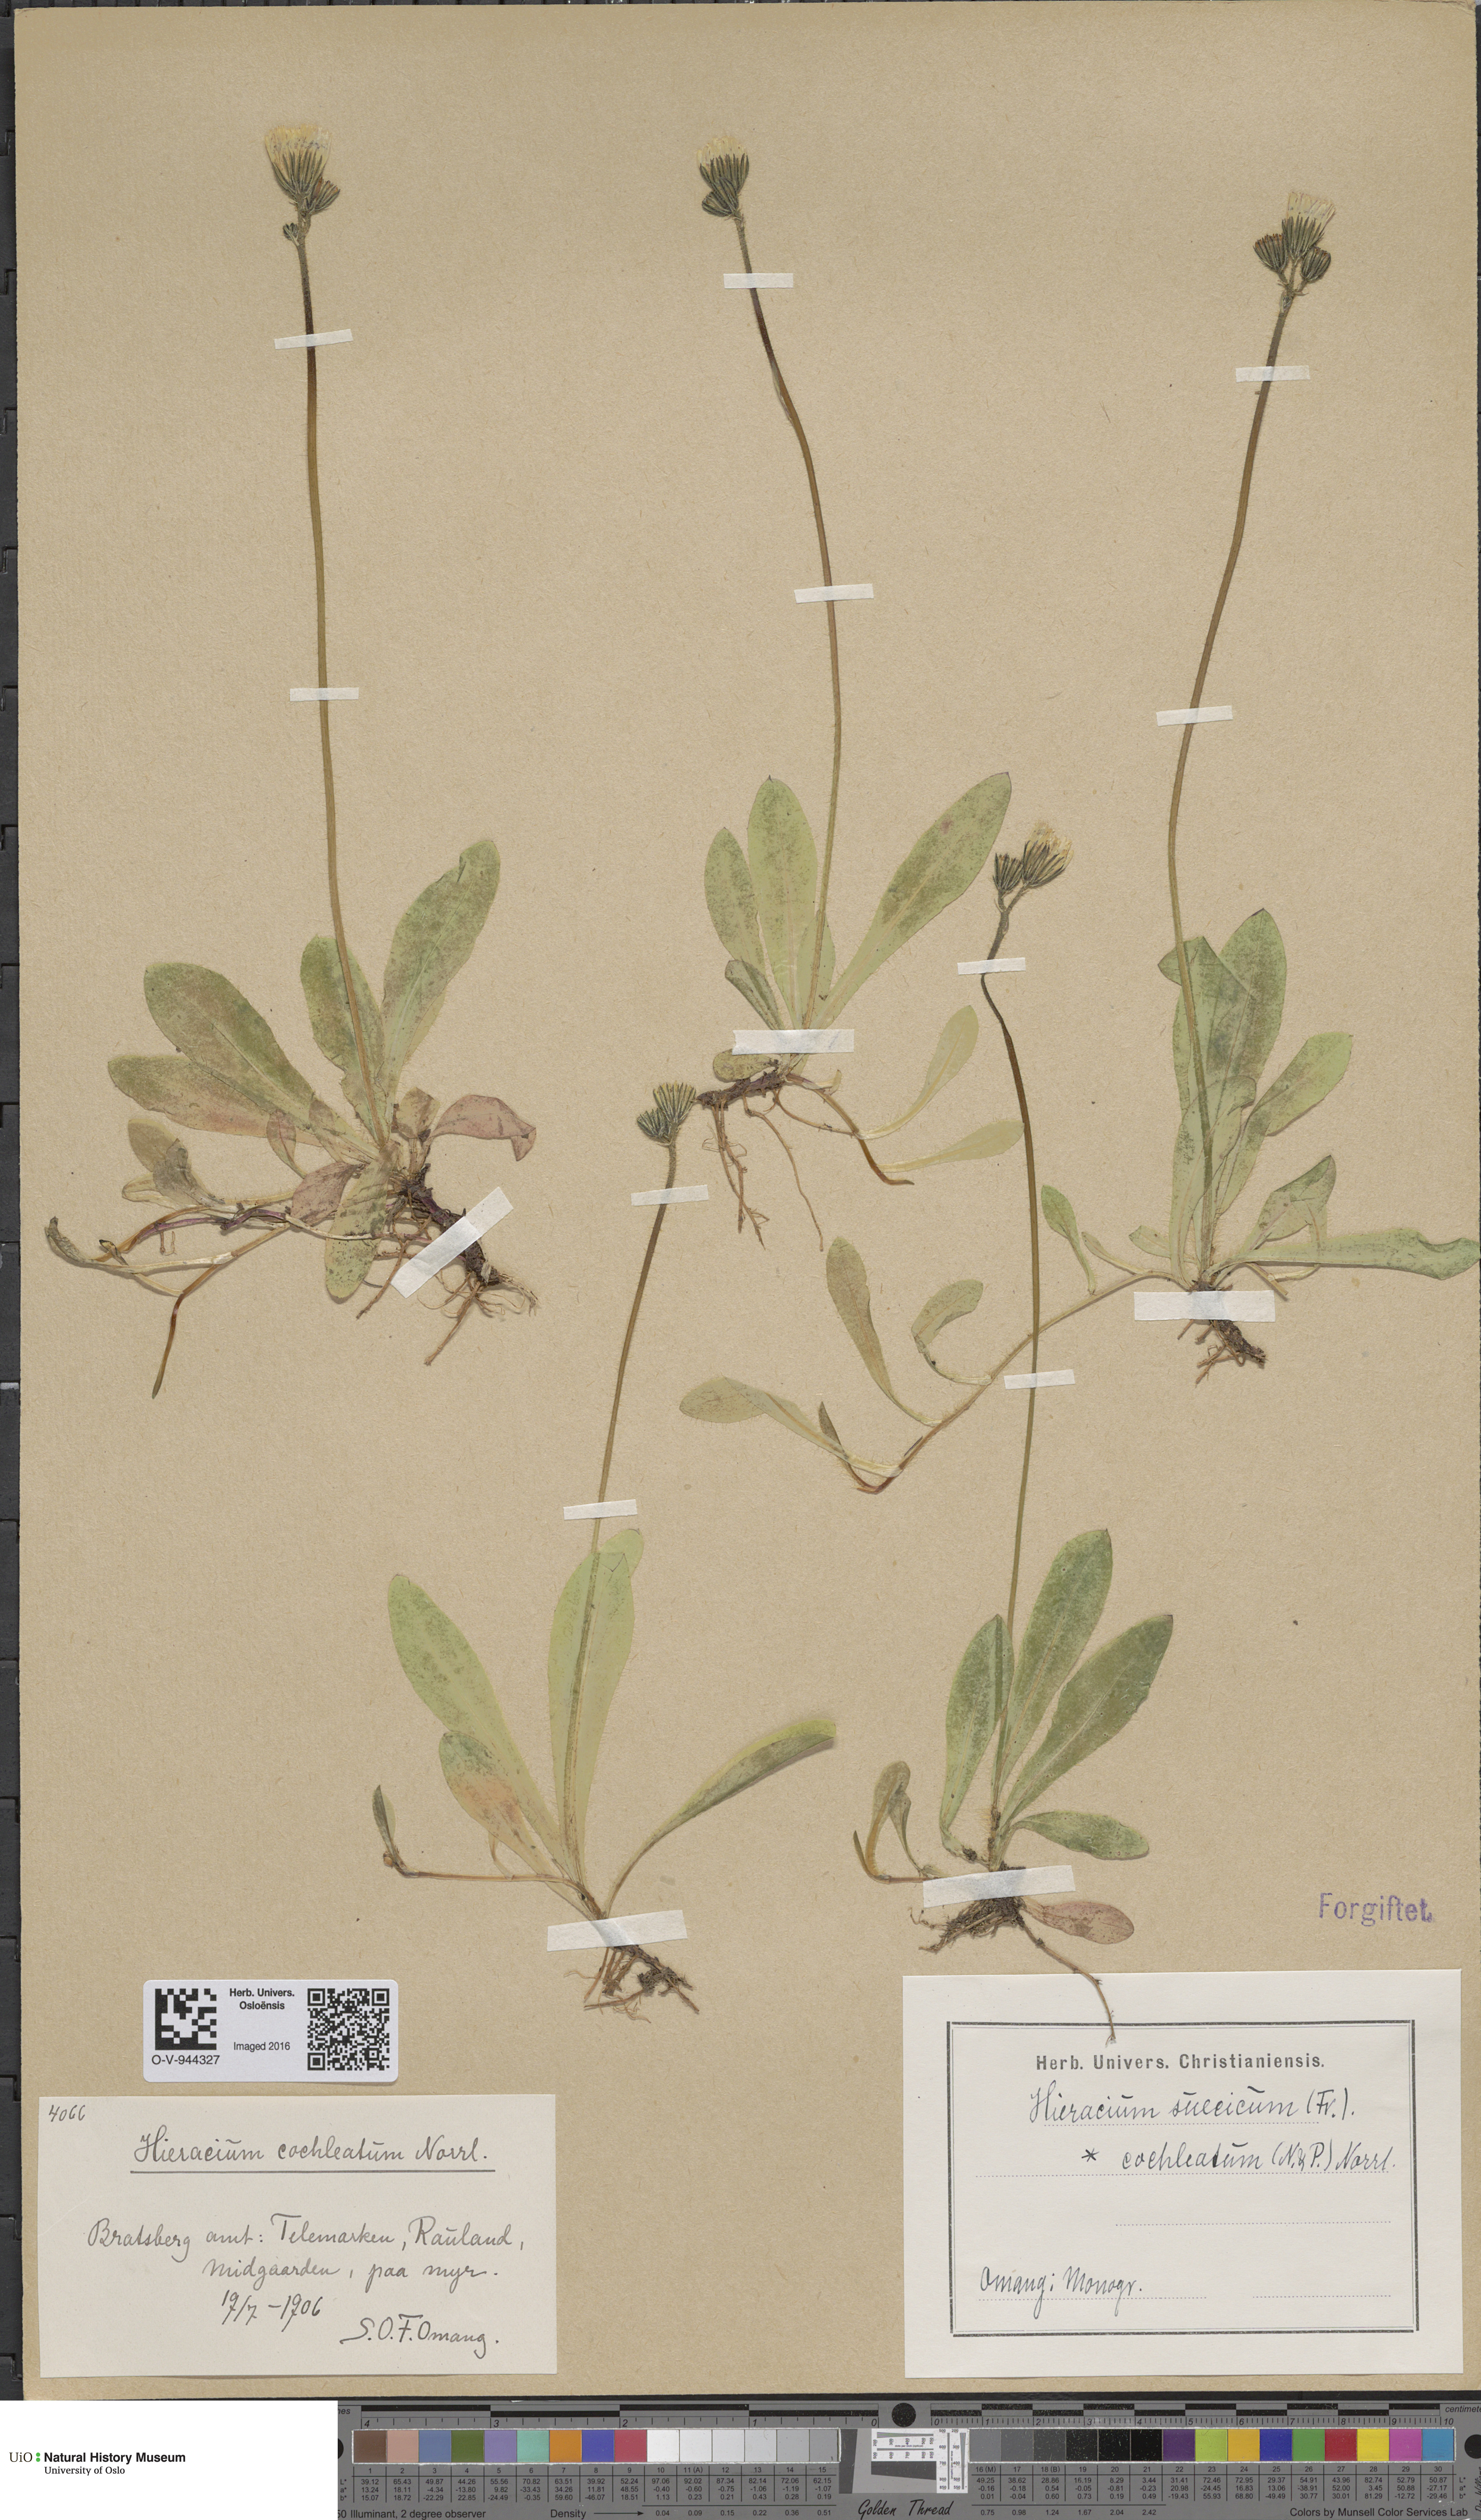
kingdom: Plantae
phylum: Tracheophyta
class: Magnoliopsida
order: Asterales
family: Asteraceae
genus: Pilosella
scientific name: Pilosella dubia
